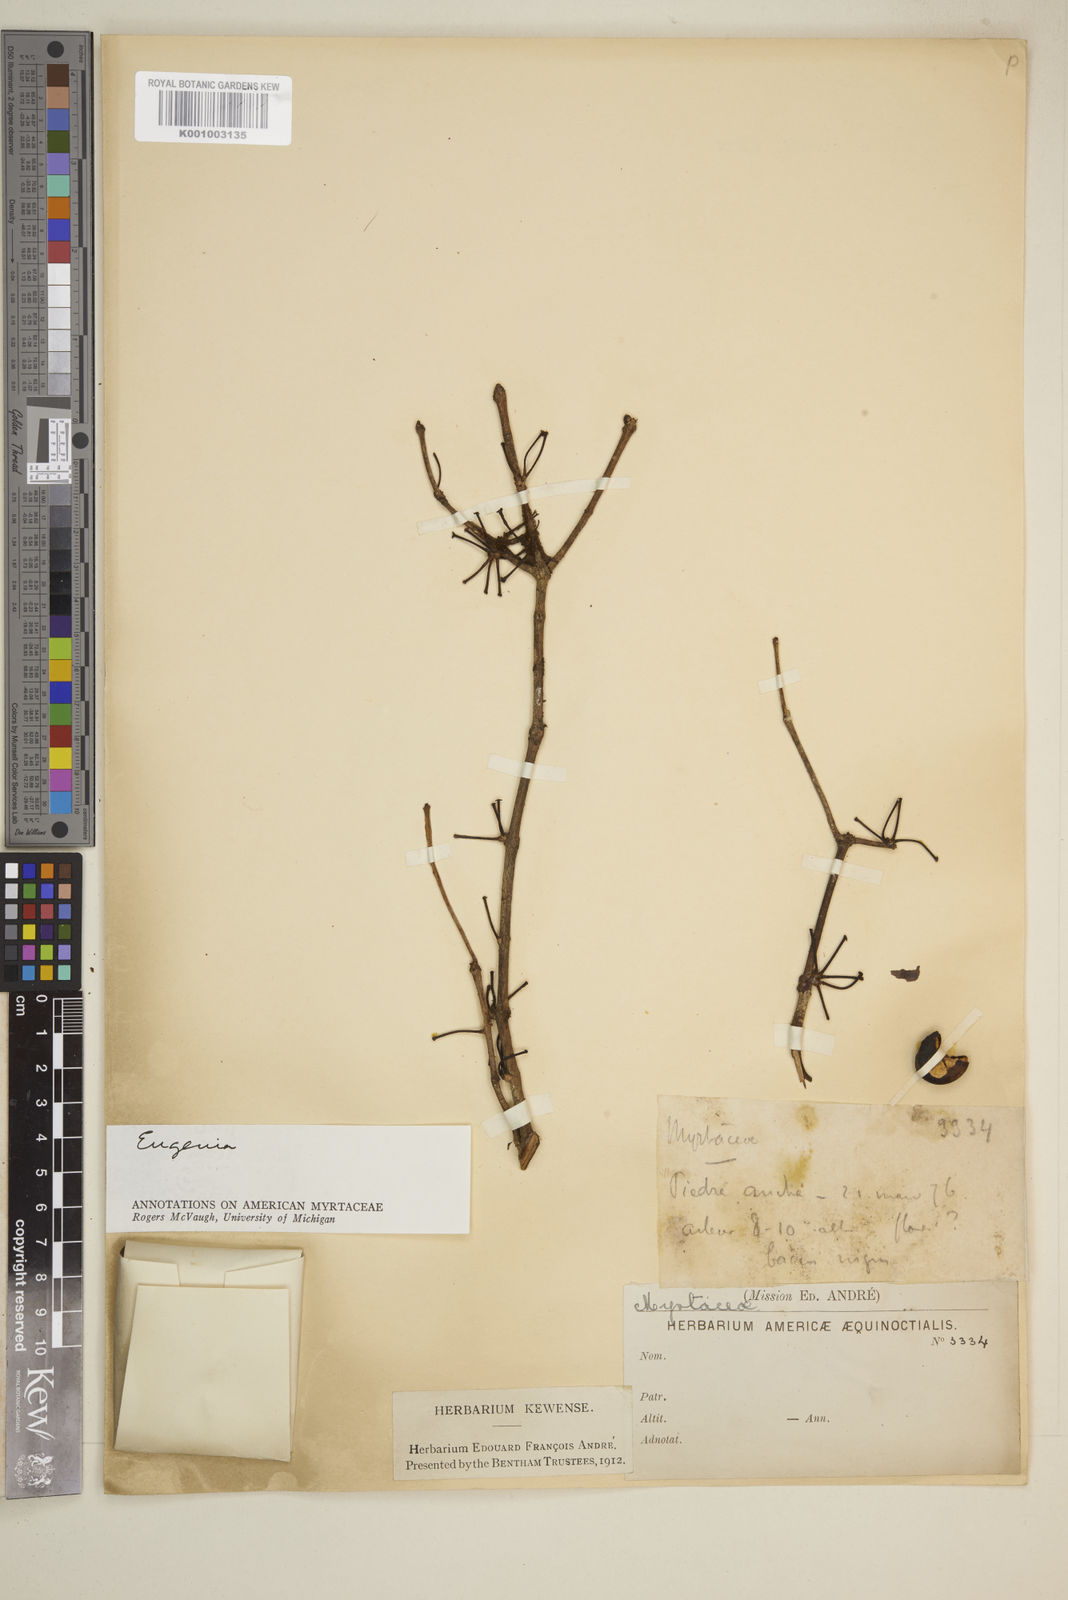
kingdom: Plantae
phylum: Tracheophyta
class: Magnoliopsida
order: Myrtales
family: Myrtaceae
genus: Eugenia
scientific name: Eugenia
